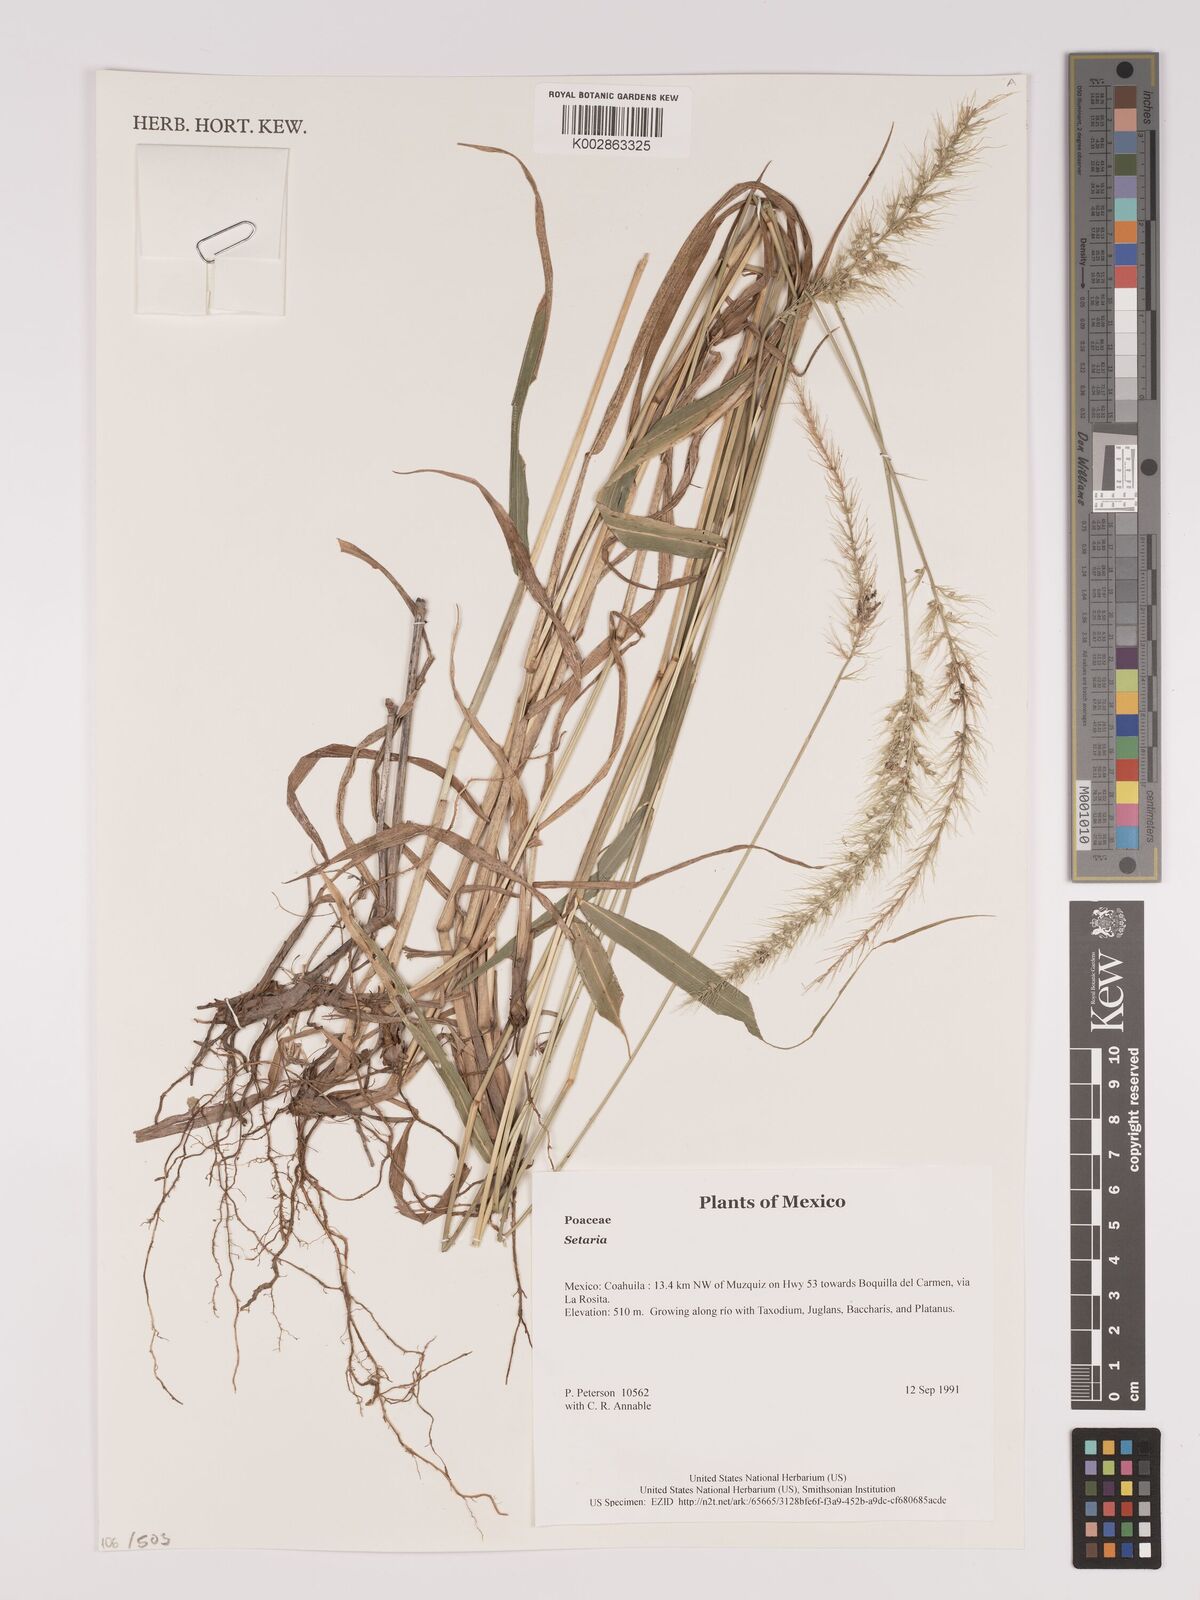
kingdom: Plantae
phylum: Tracheophyta
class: Liliopsida
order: Poales
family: Poaceae
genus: Setaria
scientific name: Setaria
